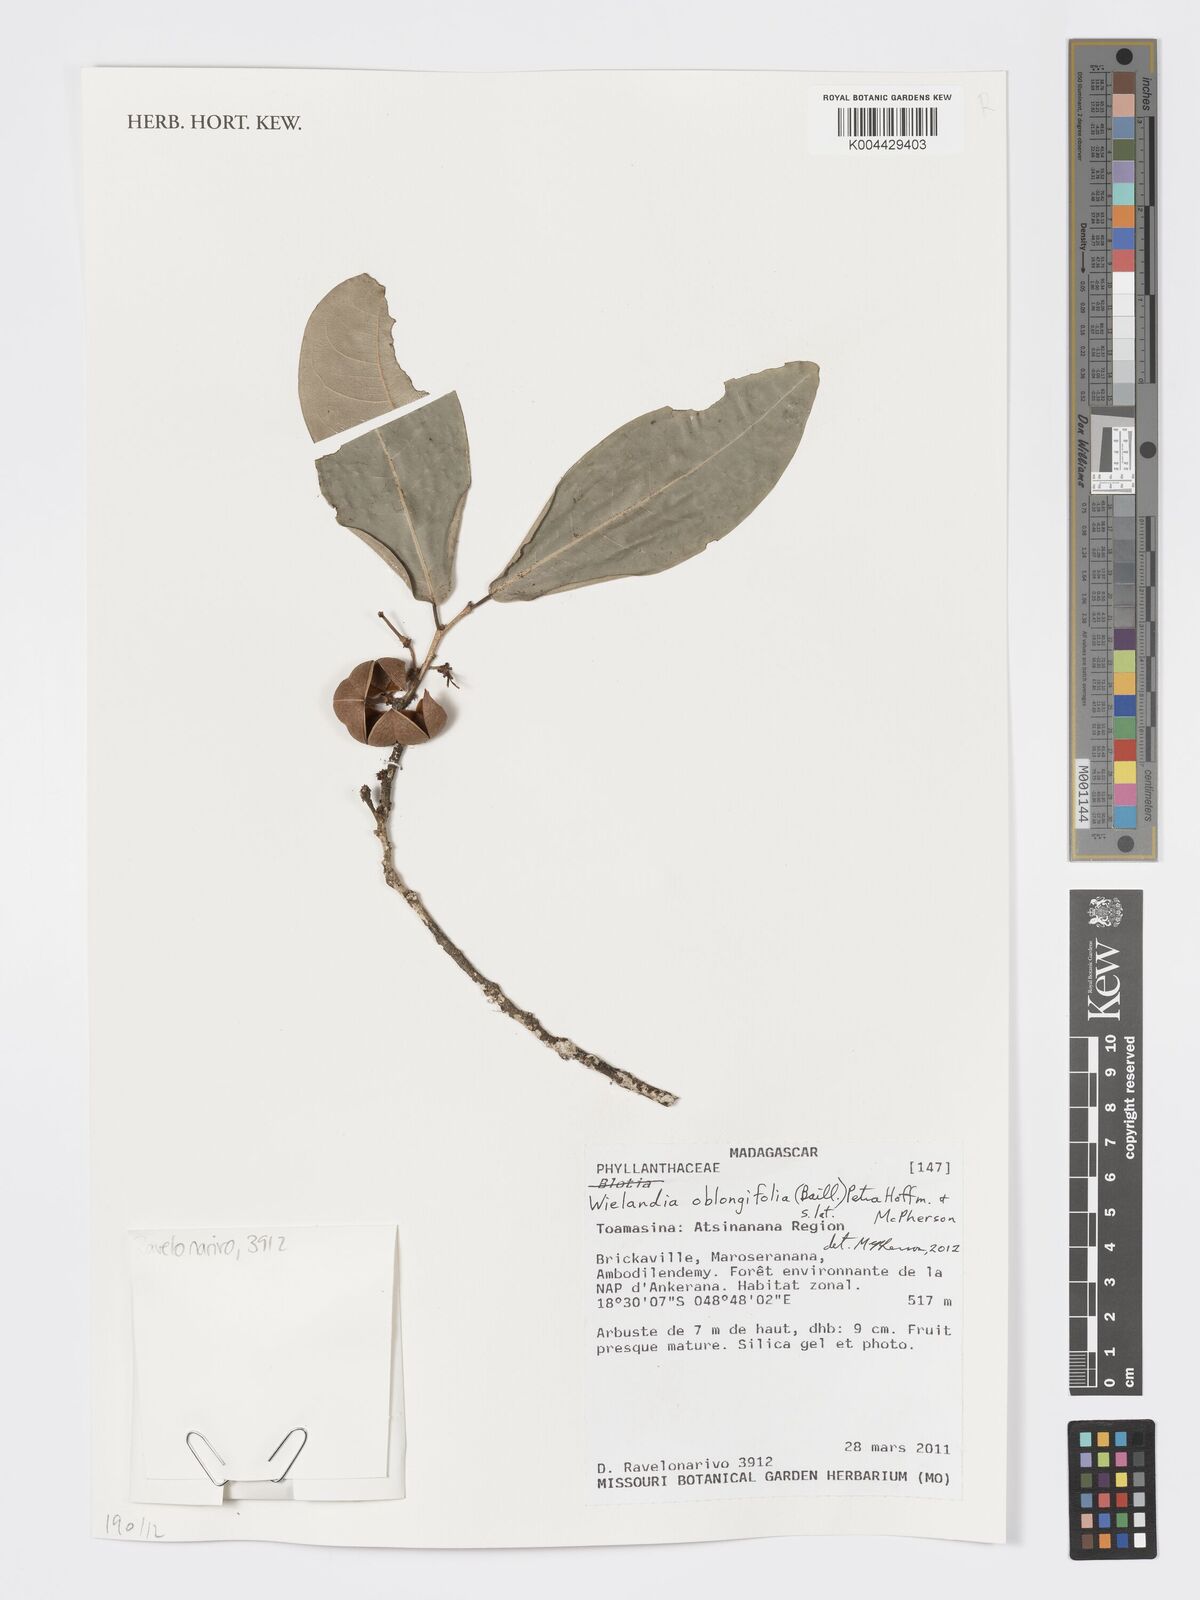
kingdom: Plantae
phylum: Tracheophyta
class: Magnoliopsida
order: Malpighiales
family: Phyllanthaceae
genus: Wielandia
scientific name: Wielandia oblongifolia
